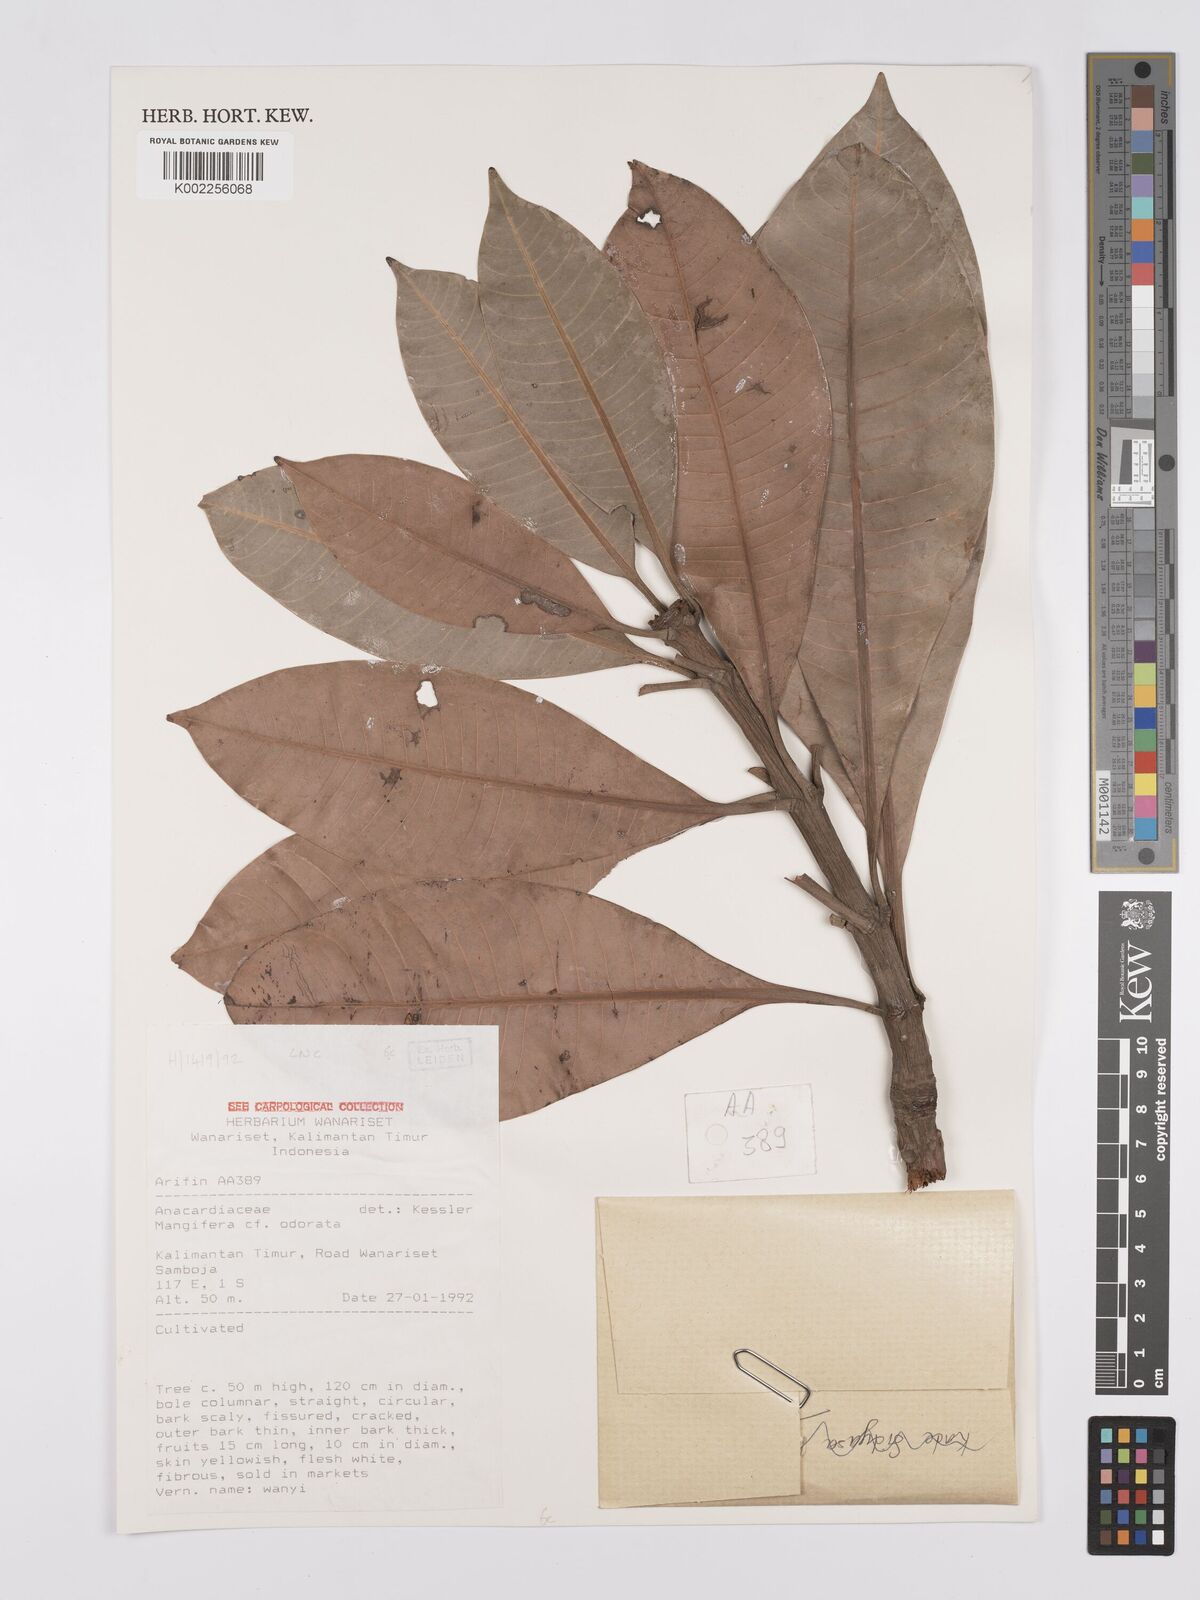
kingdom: Plantae
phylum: Tracheophyta
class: Magnoliopsida
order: Sapindales
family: Anacardiaceae
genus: Mangifera
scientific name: Mangifera odorata
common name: Saipan mango
